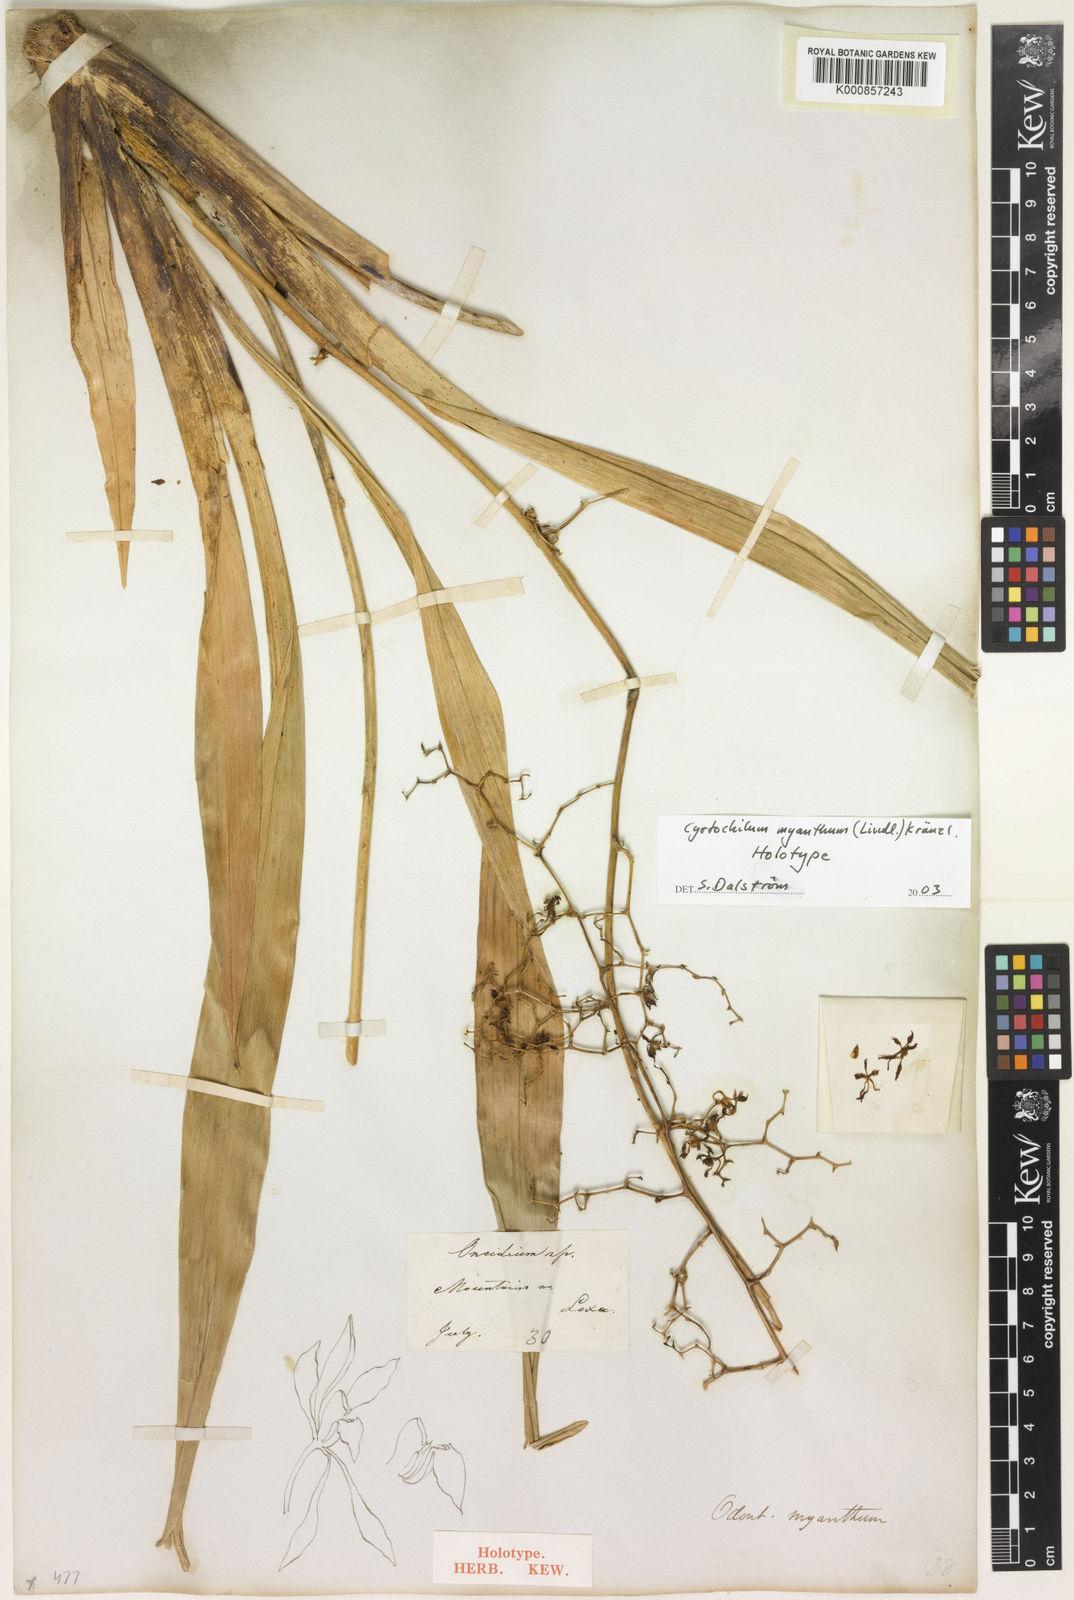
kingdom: Plantae
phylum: Tracheophyta
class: Liliopsida
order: Asparagales
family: Orchidaceae
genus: Cyrtochilum
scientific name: Cyrtochilum myanthum
